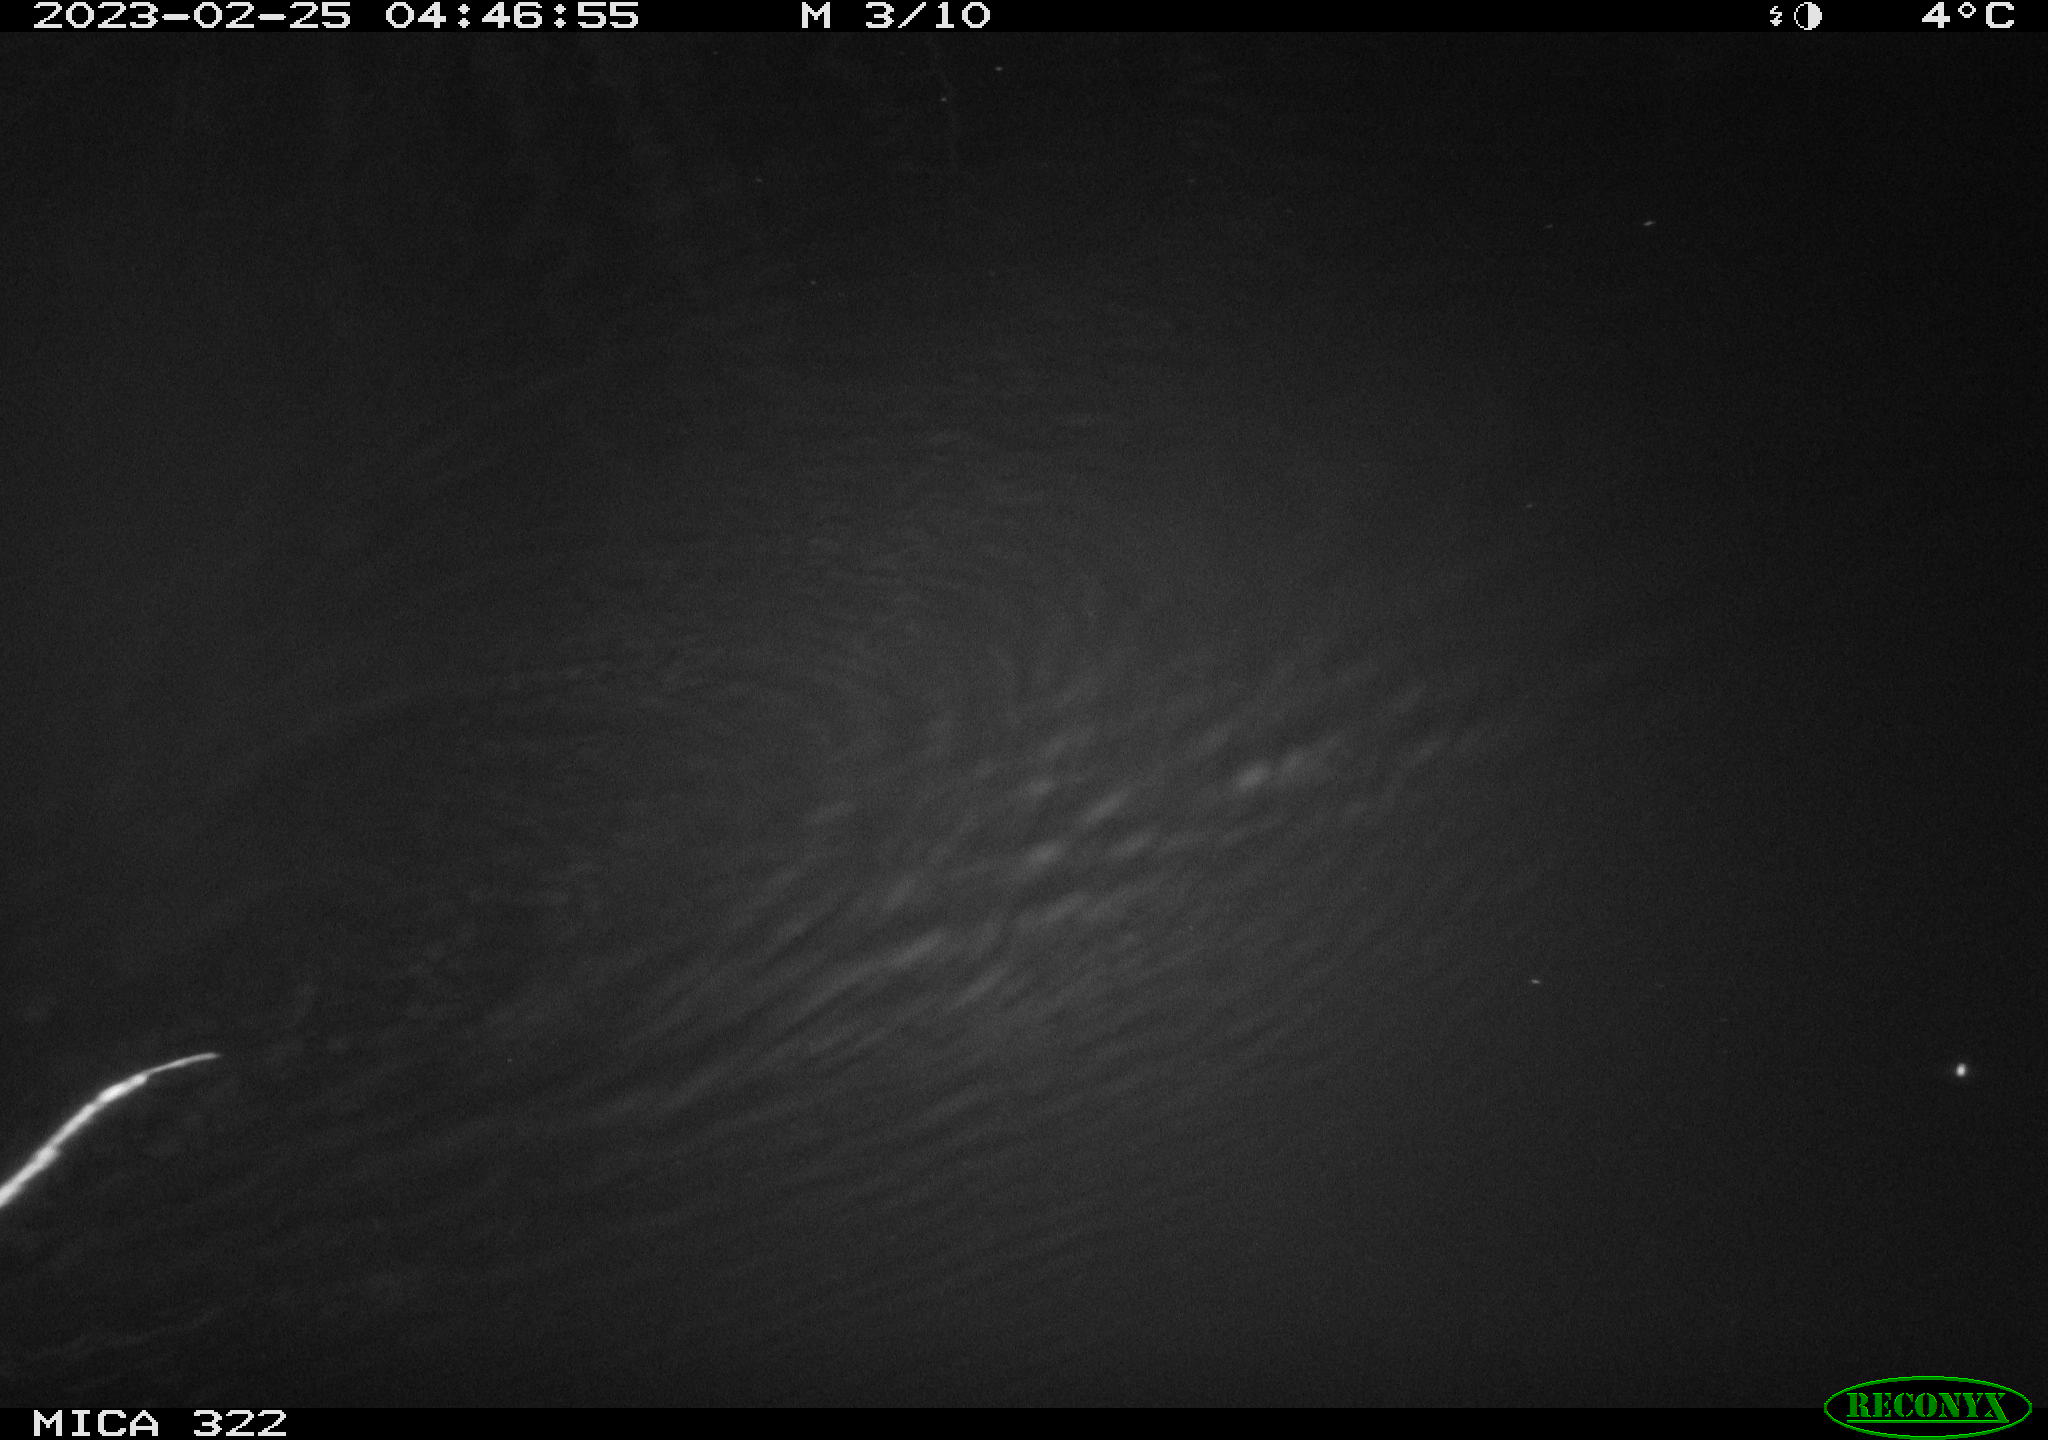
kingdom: Animalia
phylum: Chordata
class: Mammalia
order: Rodentia
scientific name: Rodentia
